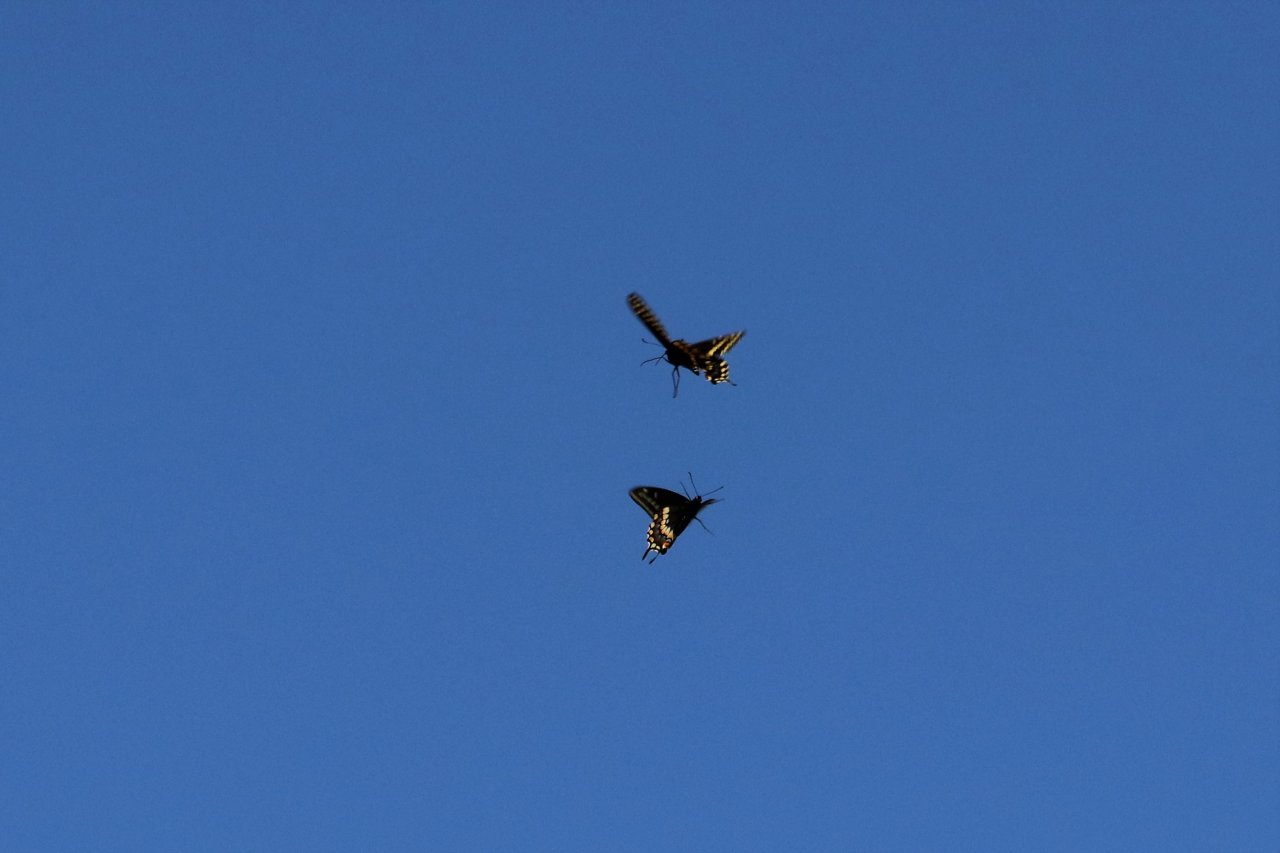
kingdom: Animalia
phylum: Arthropoda
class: Insecta
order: Lepidoptera
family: Papilionidae
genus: Papilio
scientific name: Papilio polyxenes
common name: Black Swallowtail
